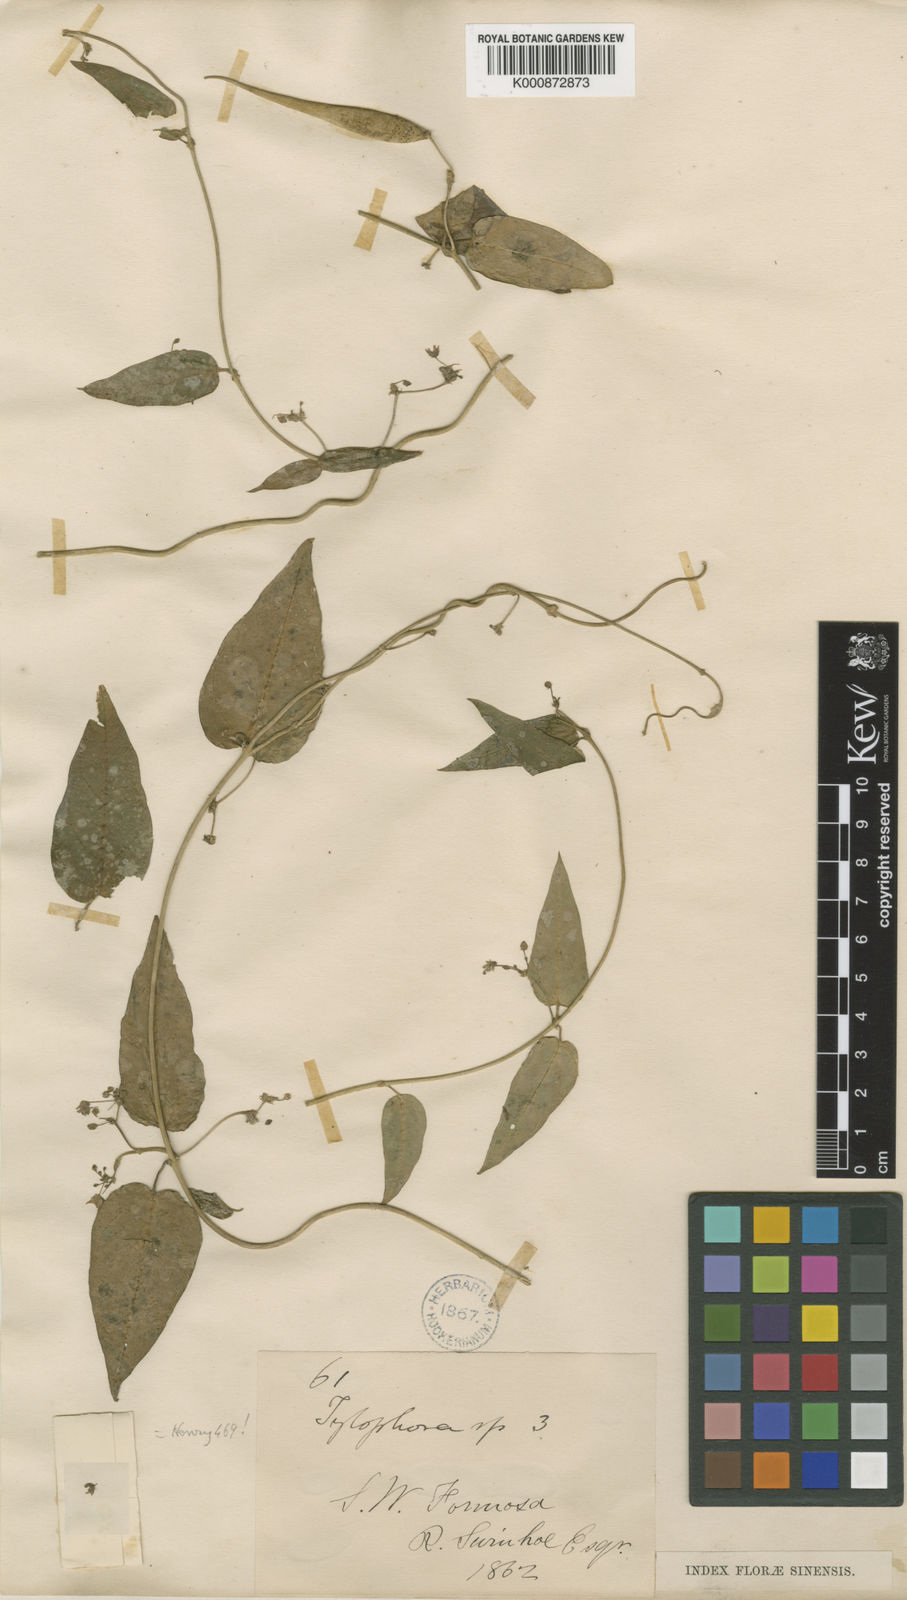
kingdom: Plantae
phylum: Tracheophyta
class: Magnoliopsida
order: Gentianales
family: Apocynaceae
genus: Vincetoxicum
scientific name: Vincetoxicum insulicola
